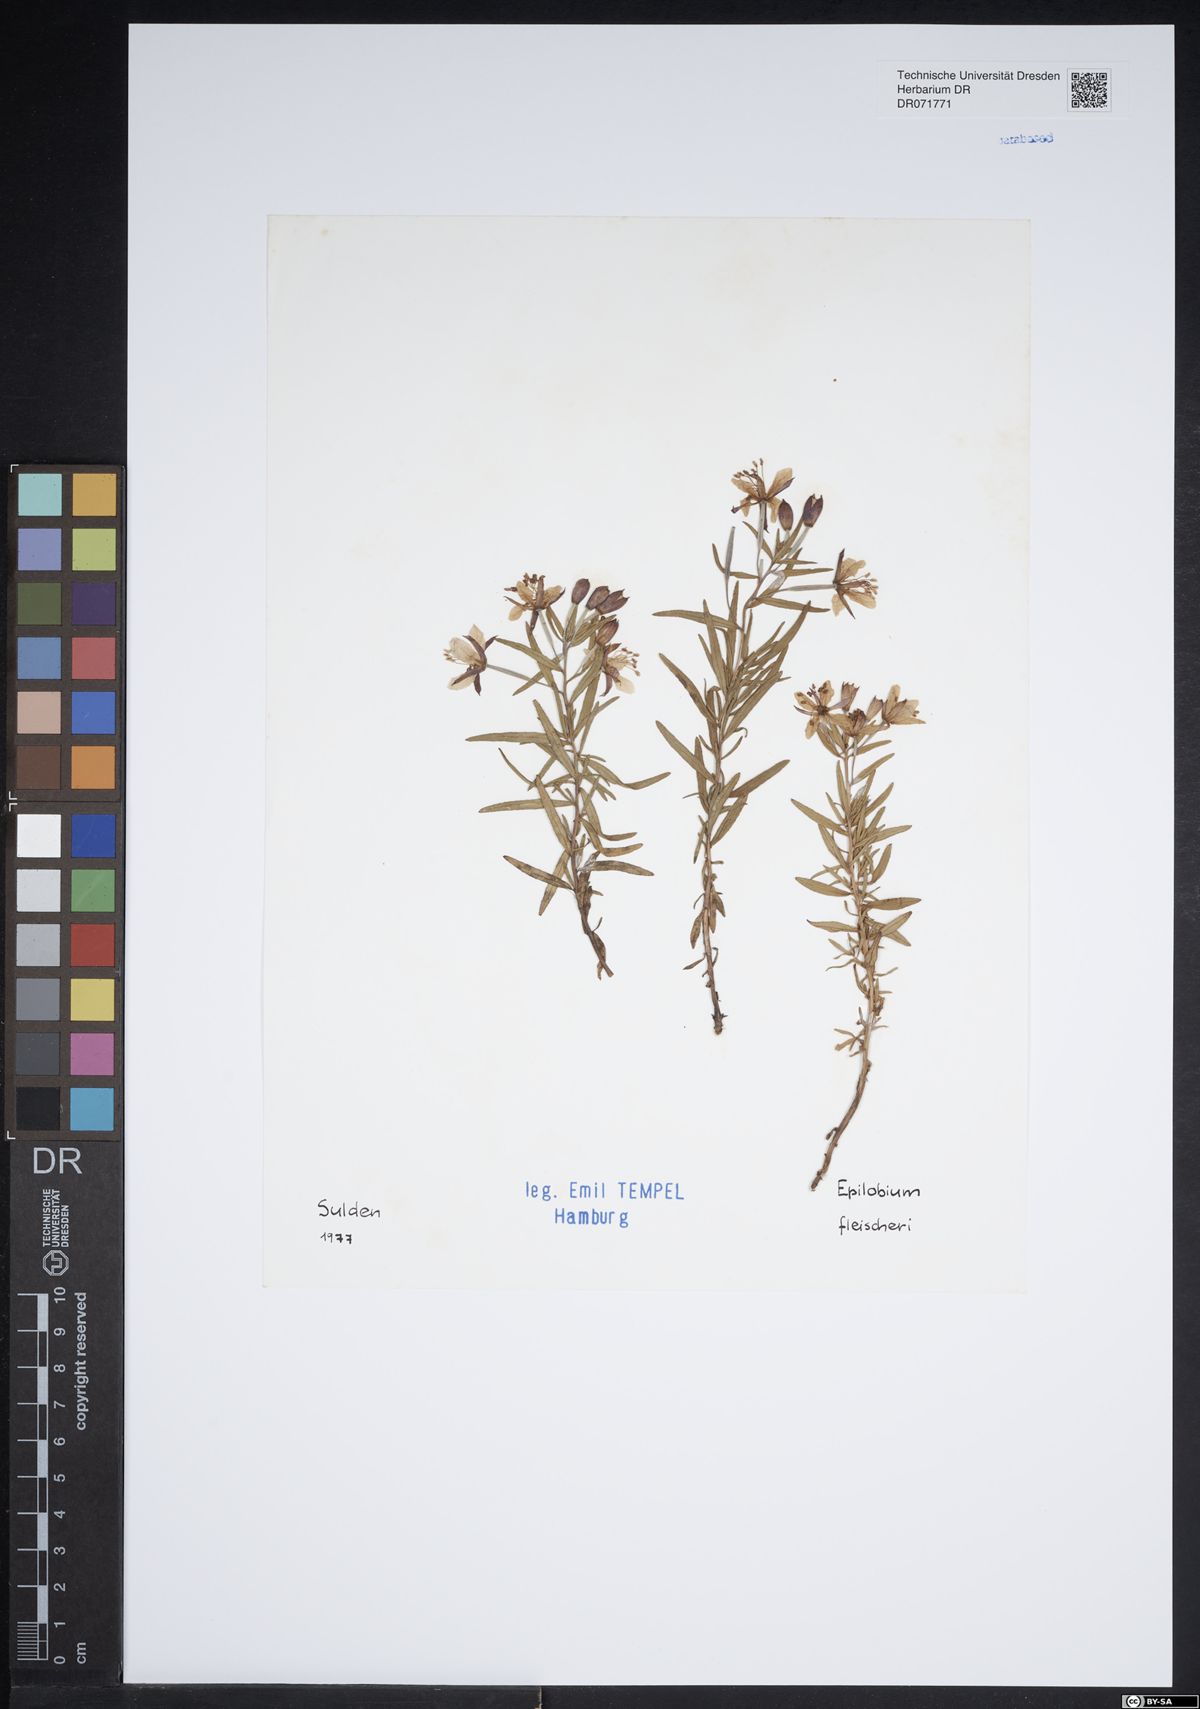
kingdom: Plantae
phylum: Tracheophyta
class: Magnoliopsida
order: Myrtales
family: Onagraceae
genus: Chamaenerion
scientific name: Chamaenerion fleischeri
